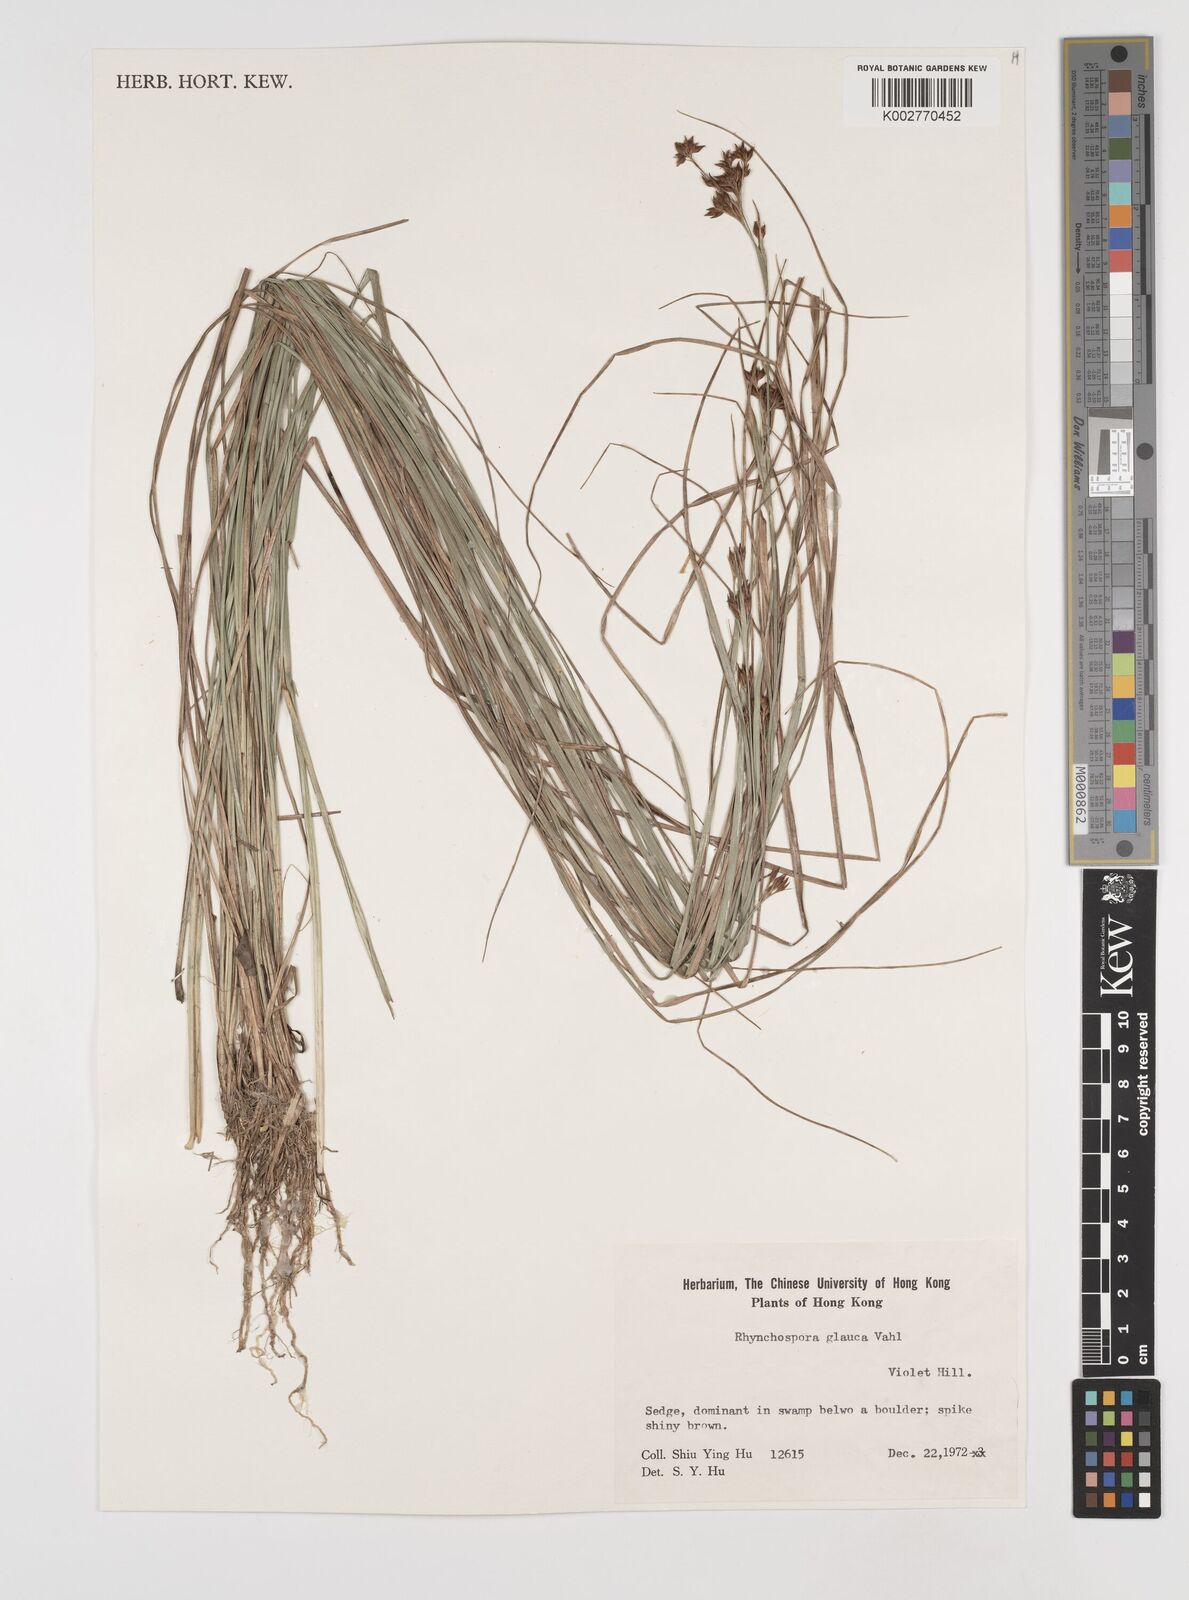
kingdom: Plantae
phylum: Tracheophyta
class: Liliopsida
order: Poales
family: Cyperaceae
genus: Rhynchospora
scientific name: Rhynchospora
